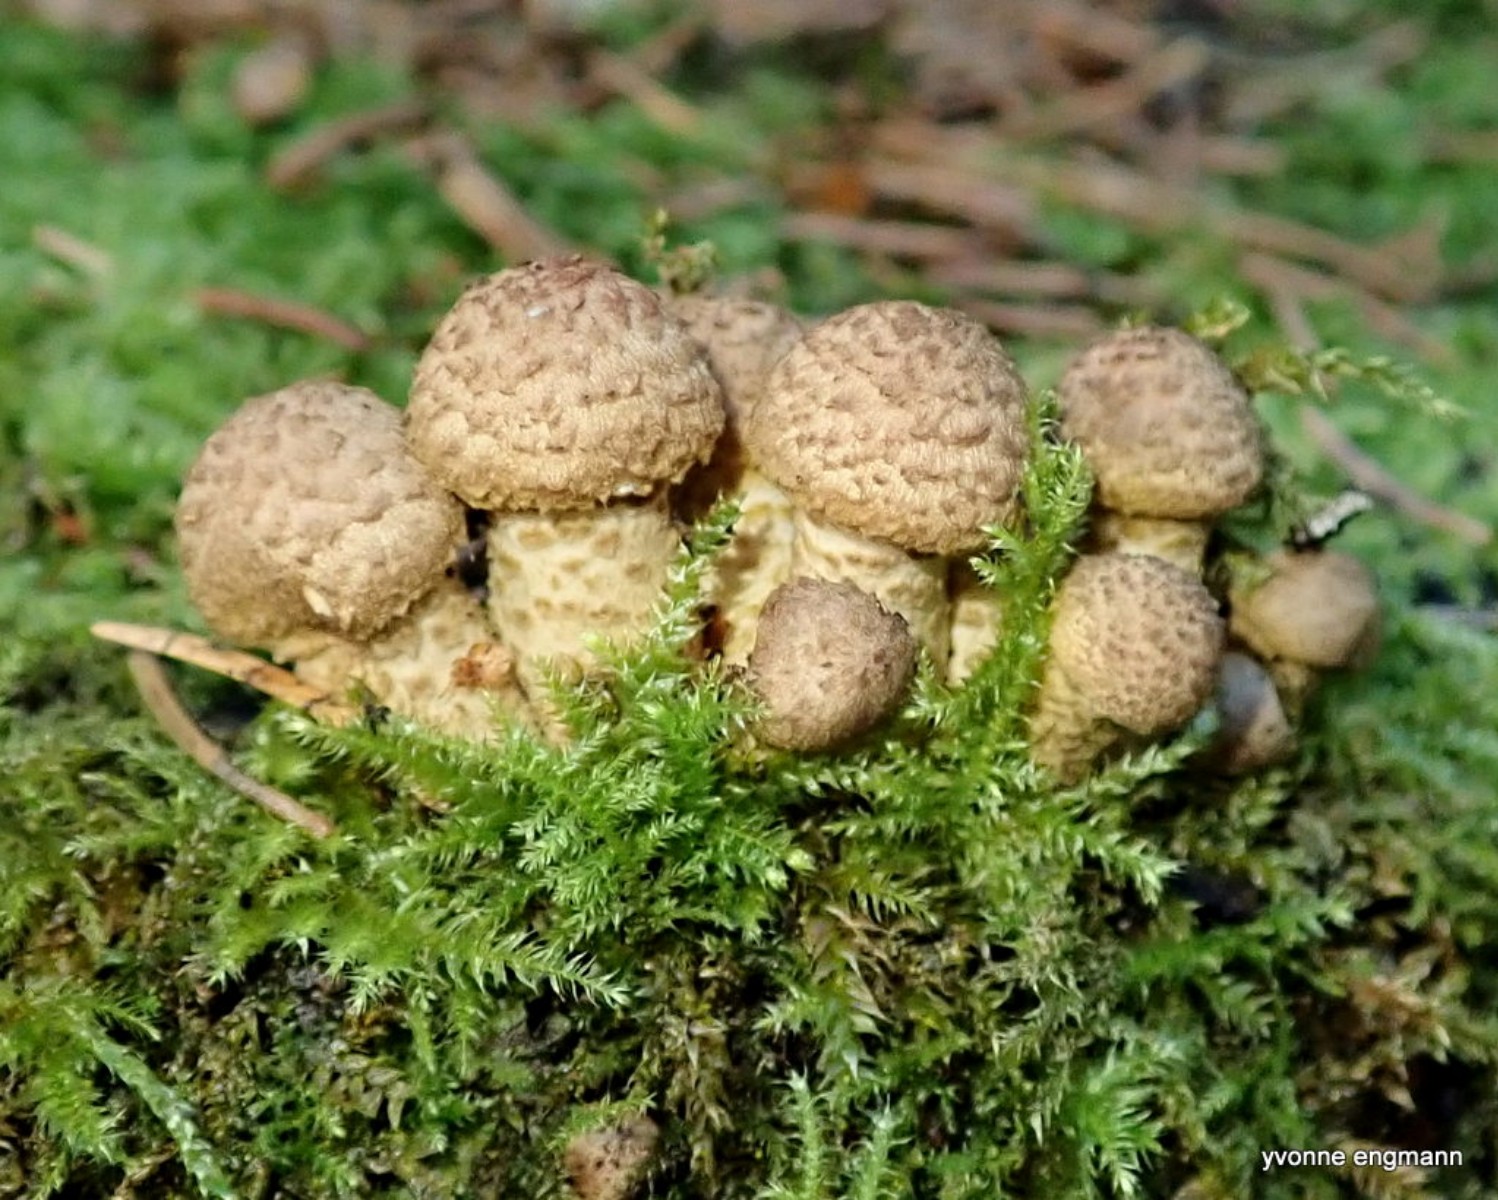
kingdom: Fungi
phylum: Basidiomycota
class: Agaricomycetes
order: Agaricales
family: Physalacriaceae
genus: Armillaria
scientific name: Armillaria ostoyae
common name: mørk honningsvamp
